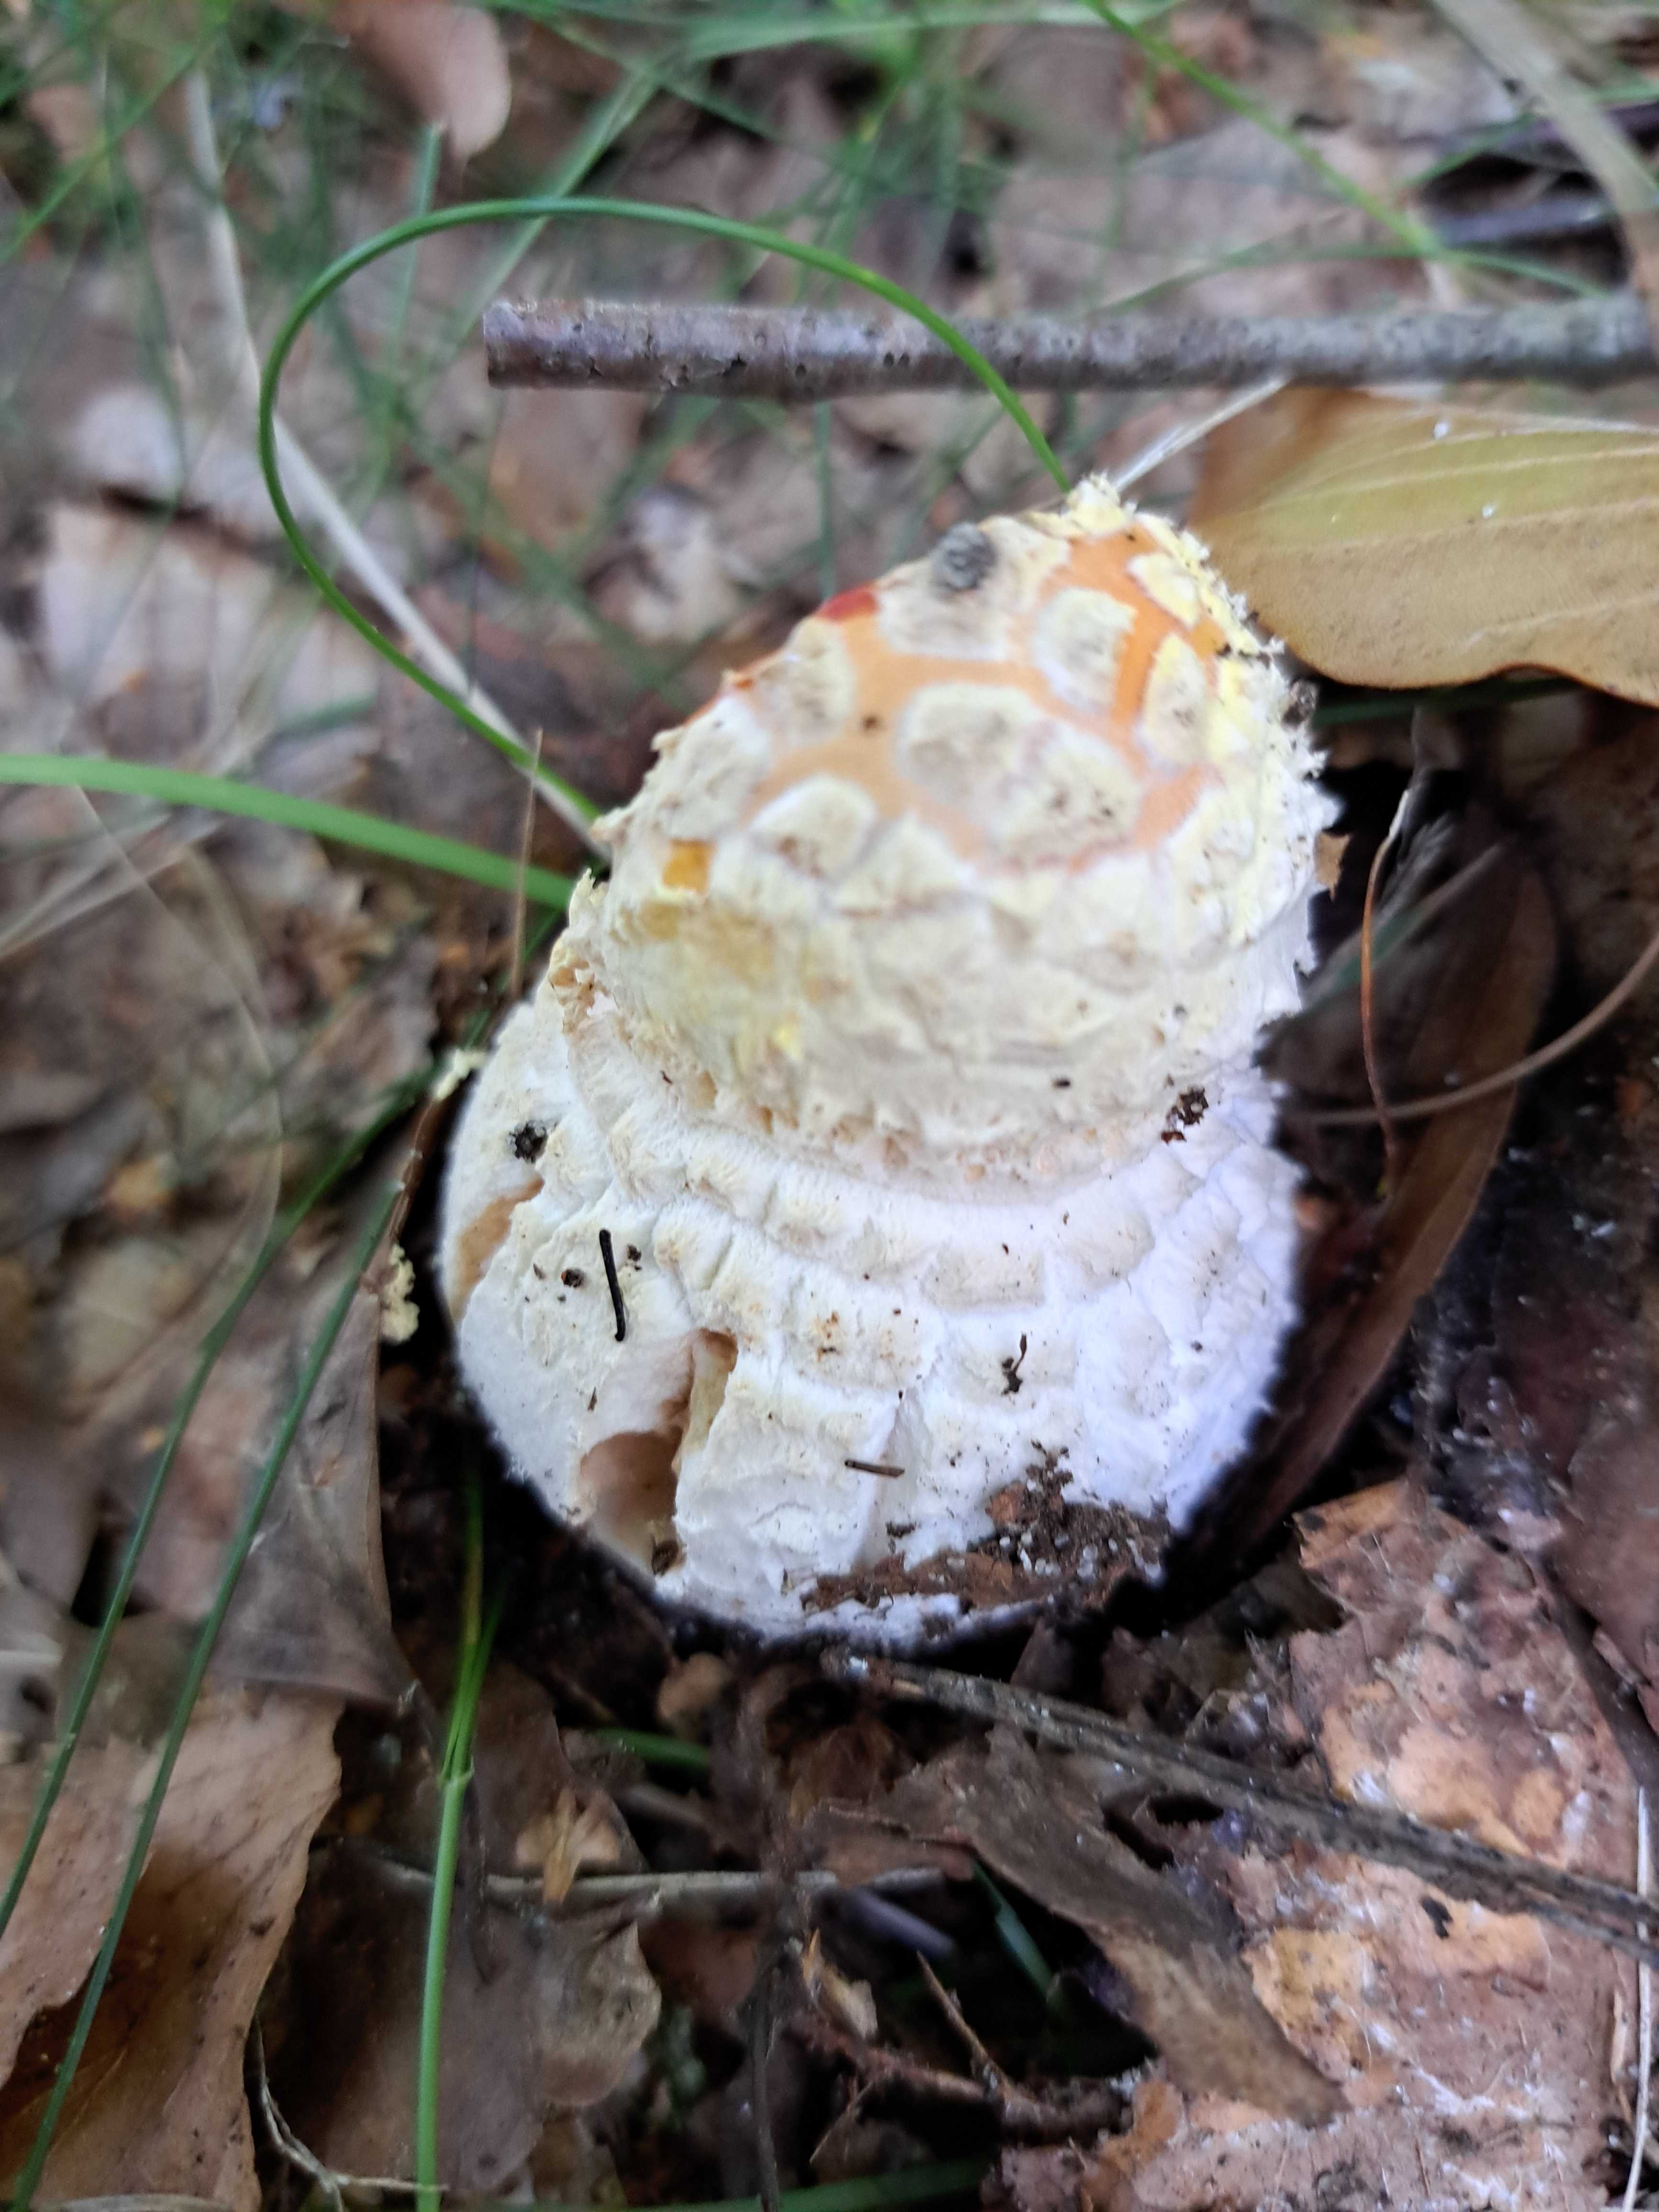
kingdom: Fungi
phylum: Basidiomycota
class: Agaricomycetes
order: Agaricales
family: Amanitaceae
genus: Amanita
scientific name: Amanita muscaria
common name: rød fluesvamp
